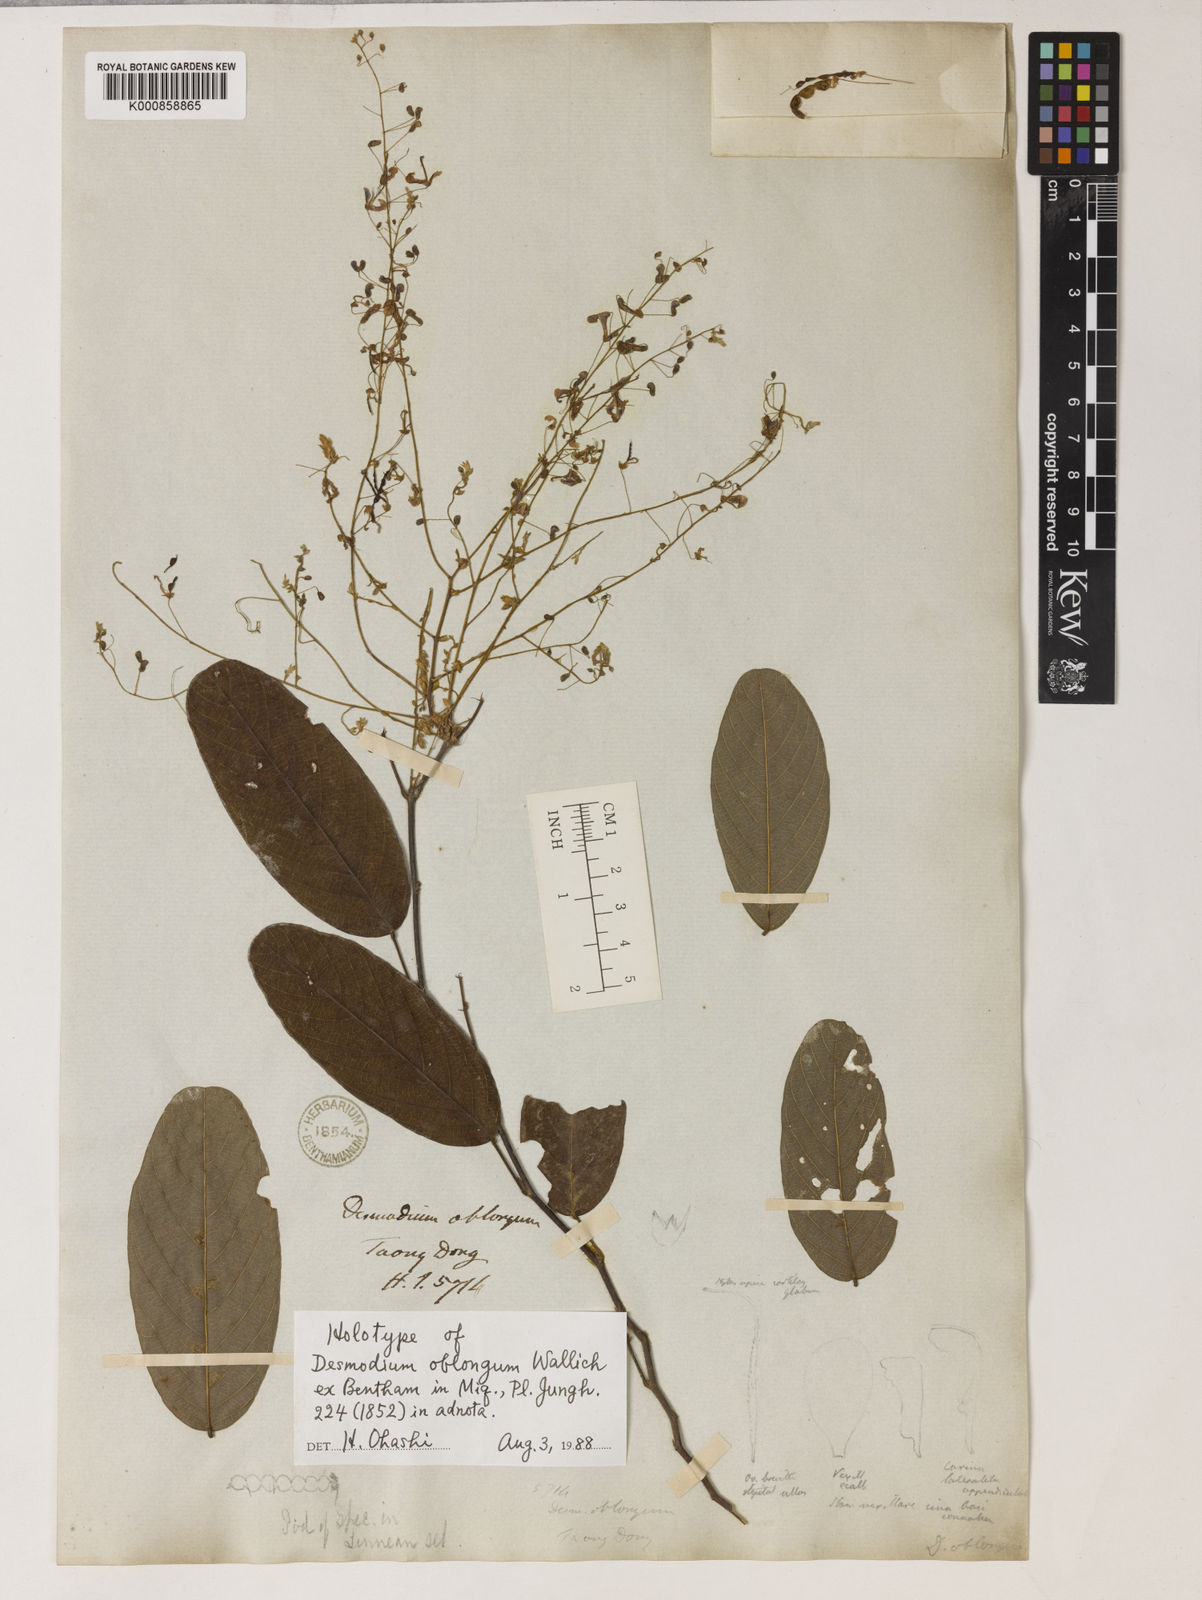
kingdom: Plantae
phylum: Tracheophyta
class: Magnoliopsida
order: Fabales
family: Fabaceae
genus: Uraria
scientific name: Uraria oblonga
